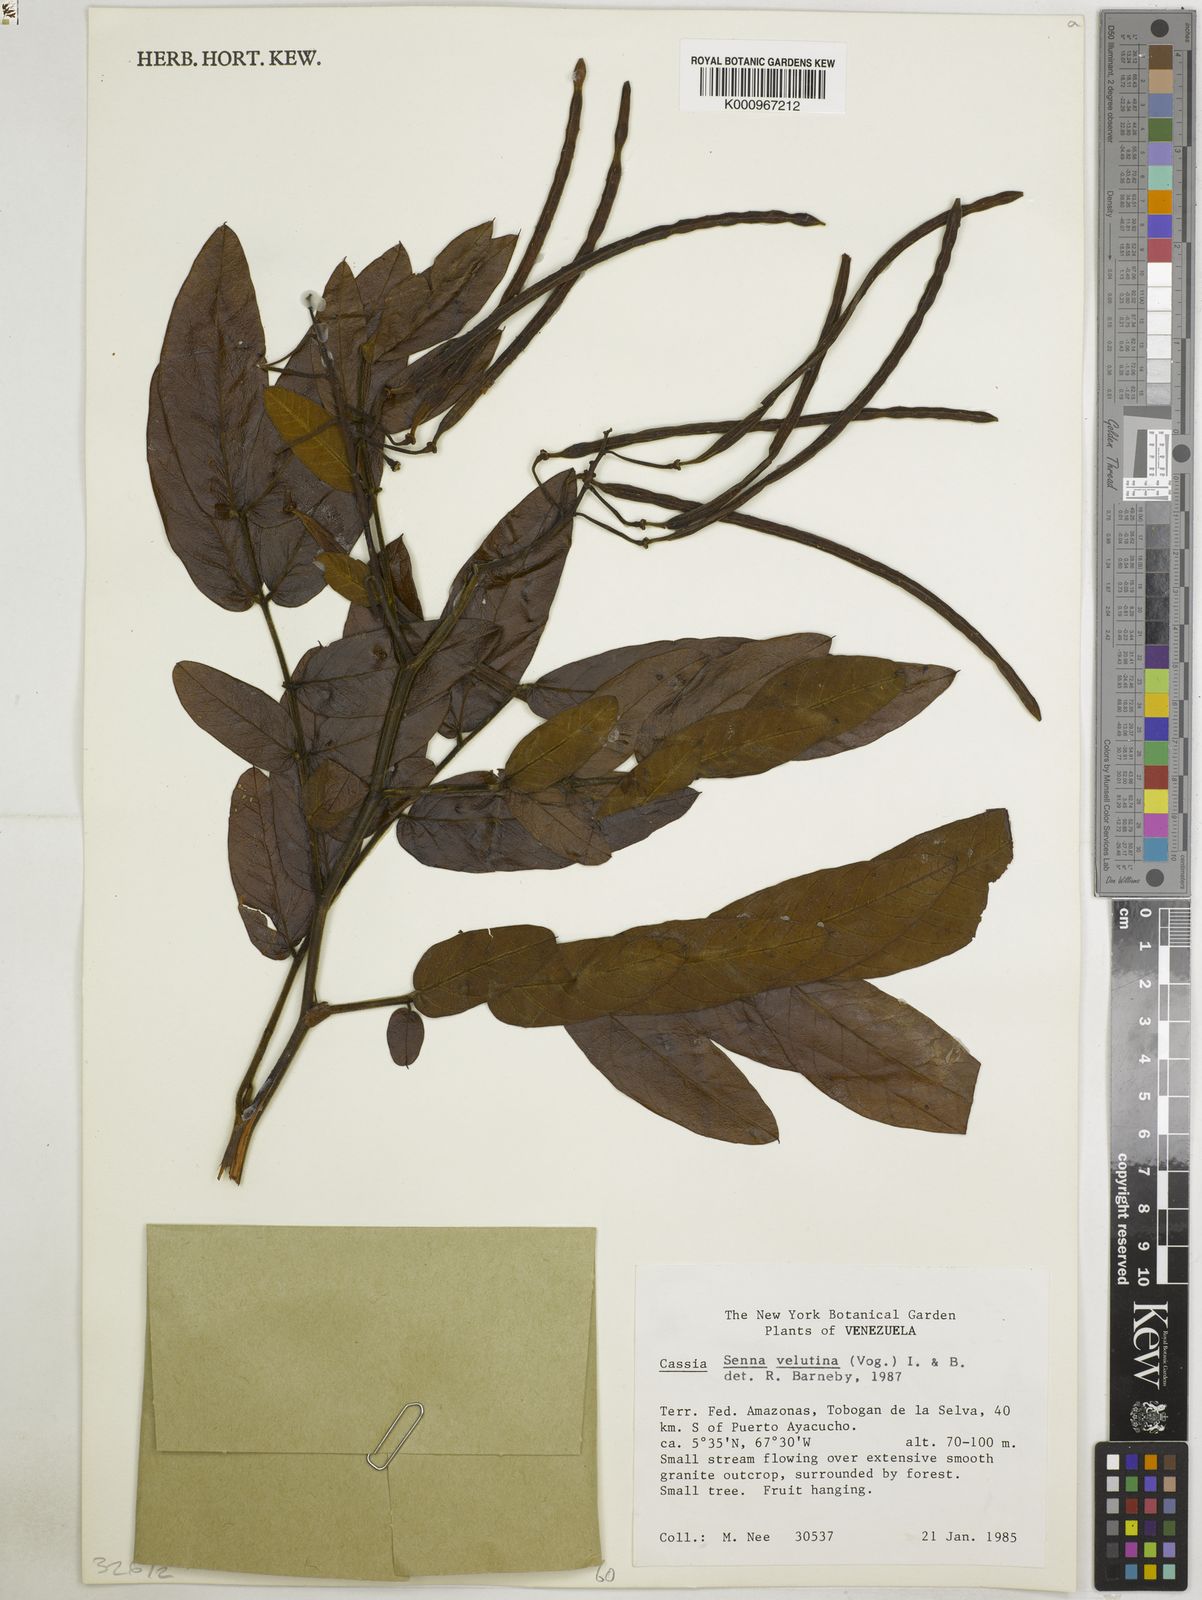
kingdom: Plantae
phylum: Tracheophyta
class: Magnoliopsida
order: Fabales
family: Fabaceae
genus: Senna
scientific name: Senna velutina
